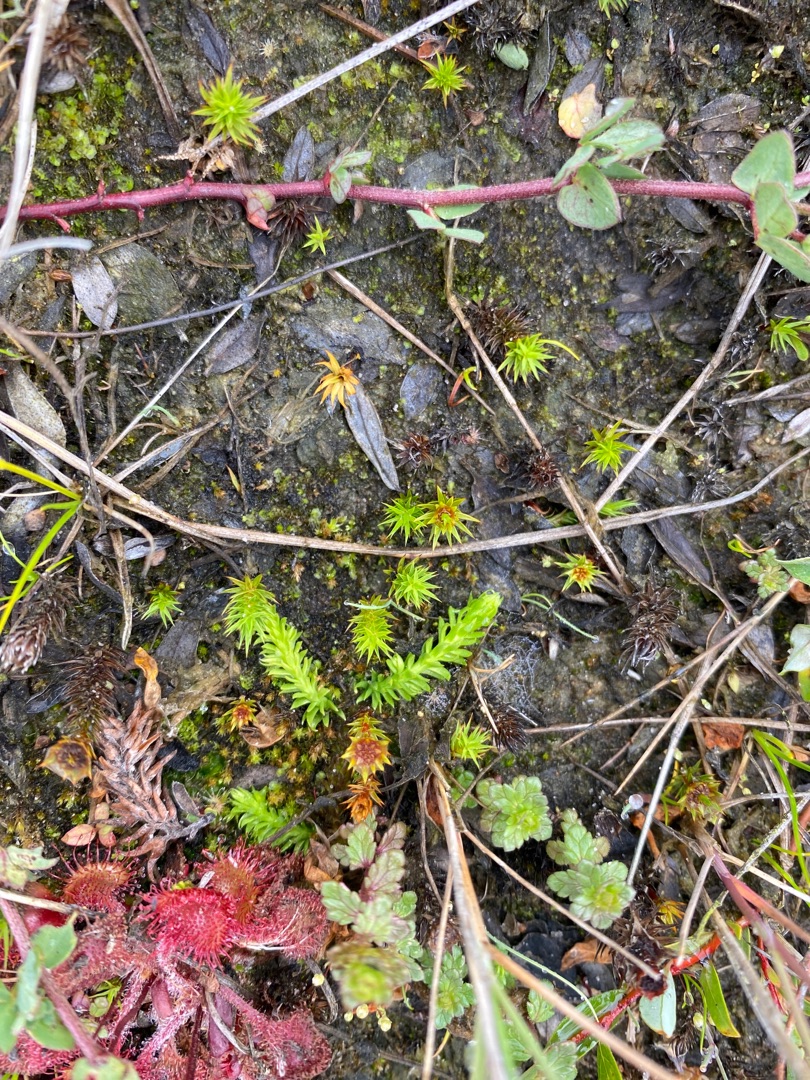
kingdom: Plantae
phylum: Tracheophyta
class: Lycopodiopsida
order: Lycopodiales
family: Lycopodiaceae
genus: Lycopodiella
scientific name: Lycopodiella inundata
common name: Liden ulvefod
